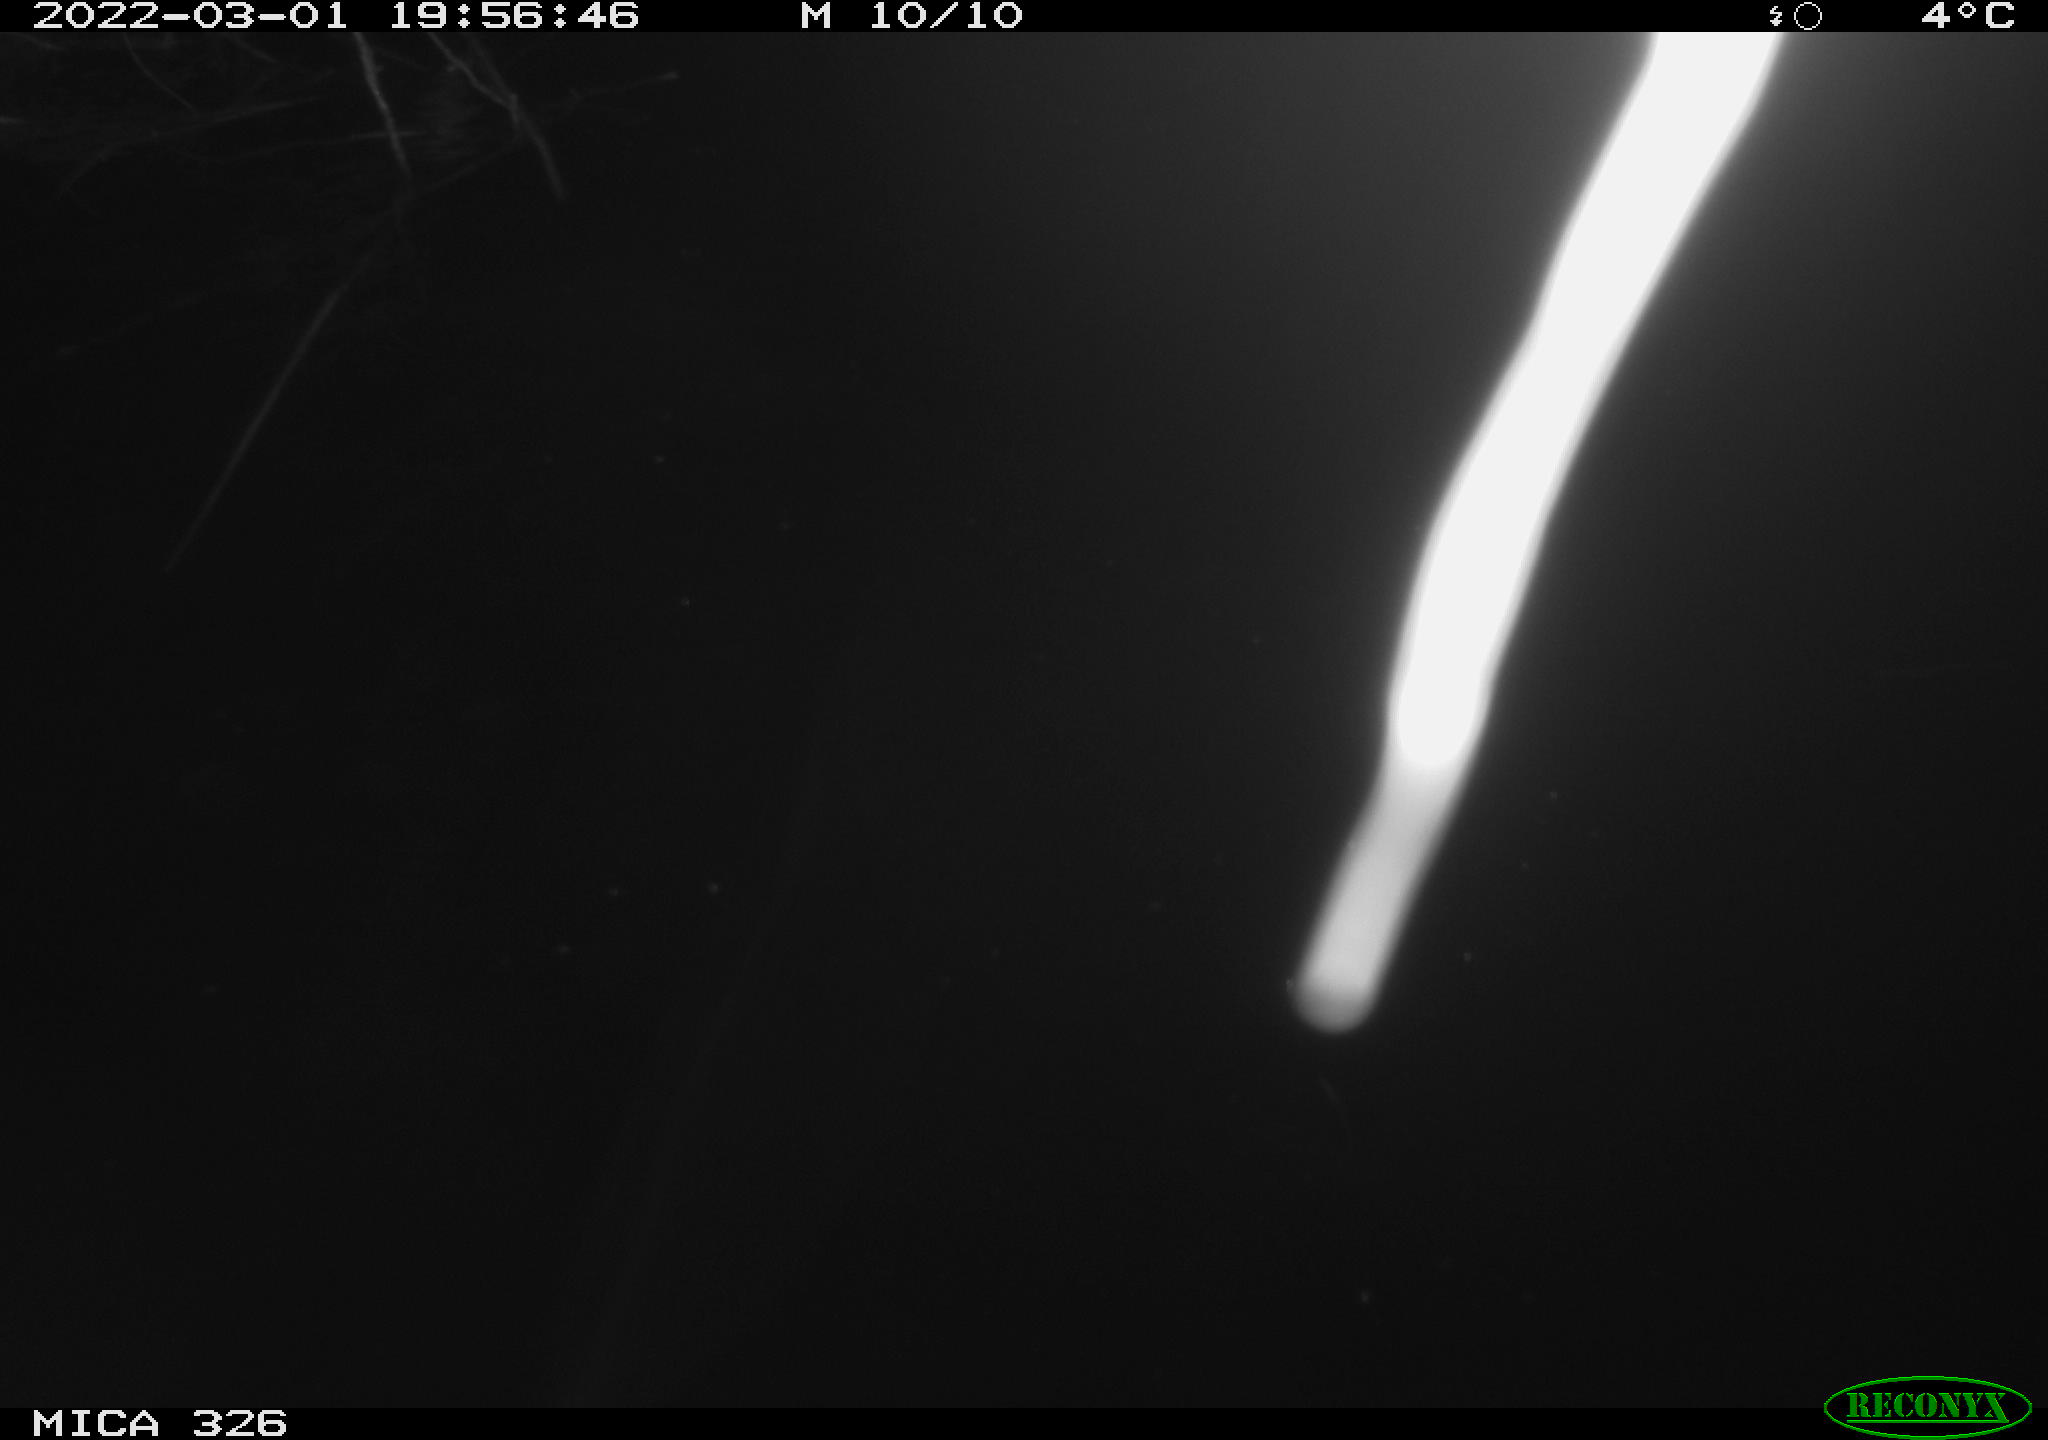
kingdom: Animalia
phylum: Chordata
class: Mammalia
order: Rodentia
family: Cricetidae
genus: Ondatra
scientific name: Ondatra zibethicus
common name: Muskrat
